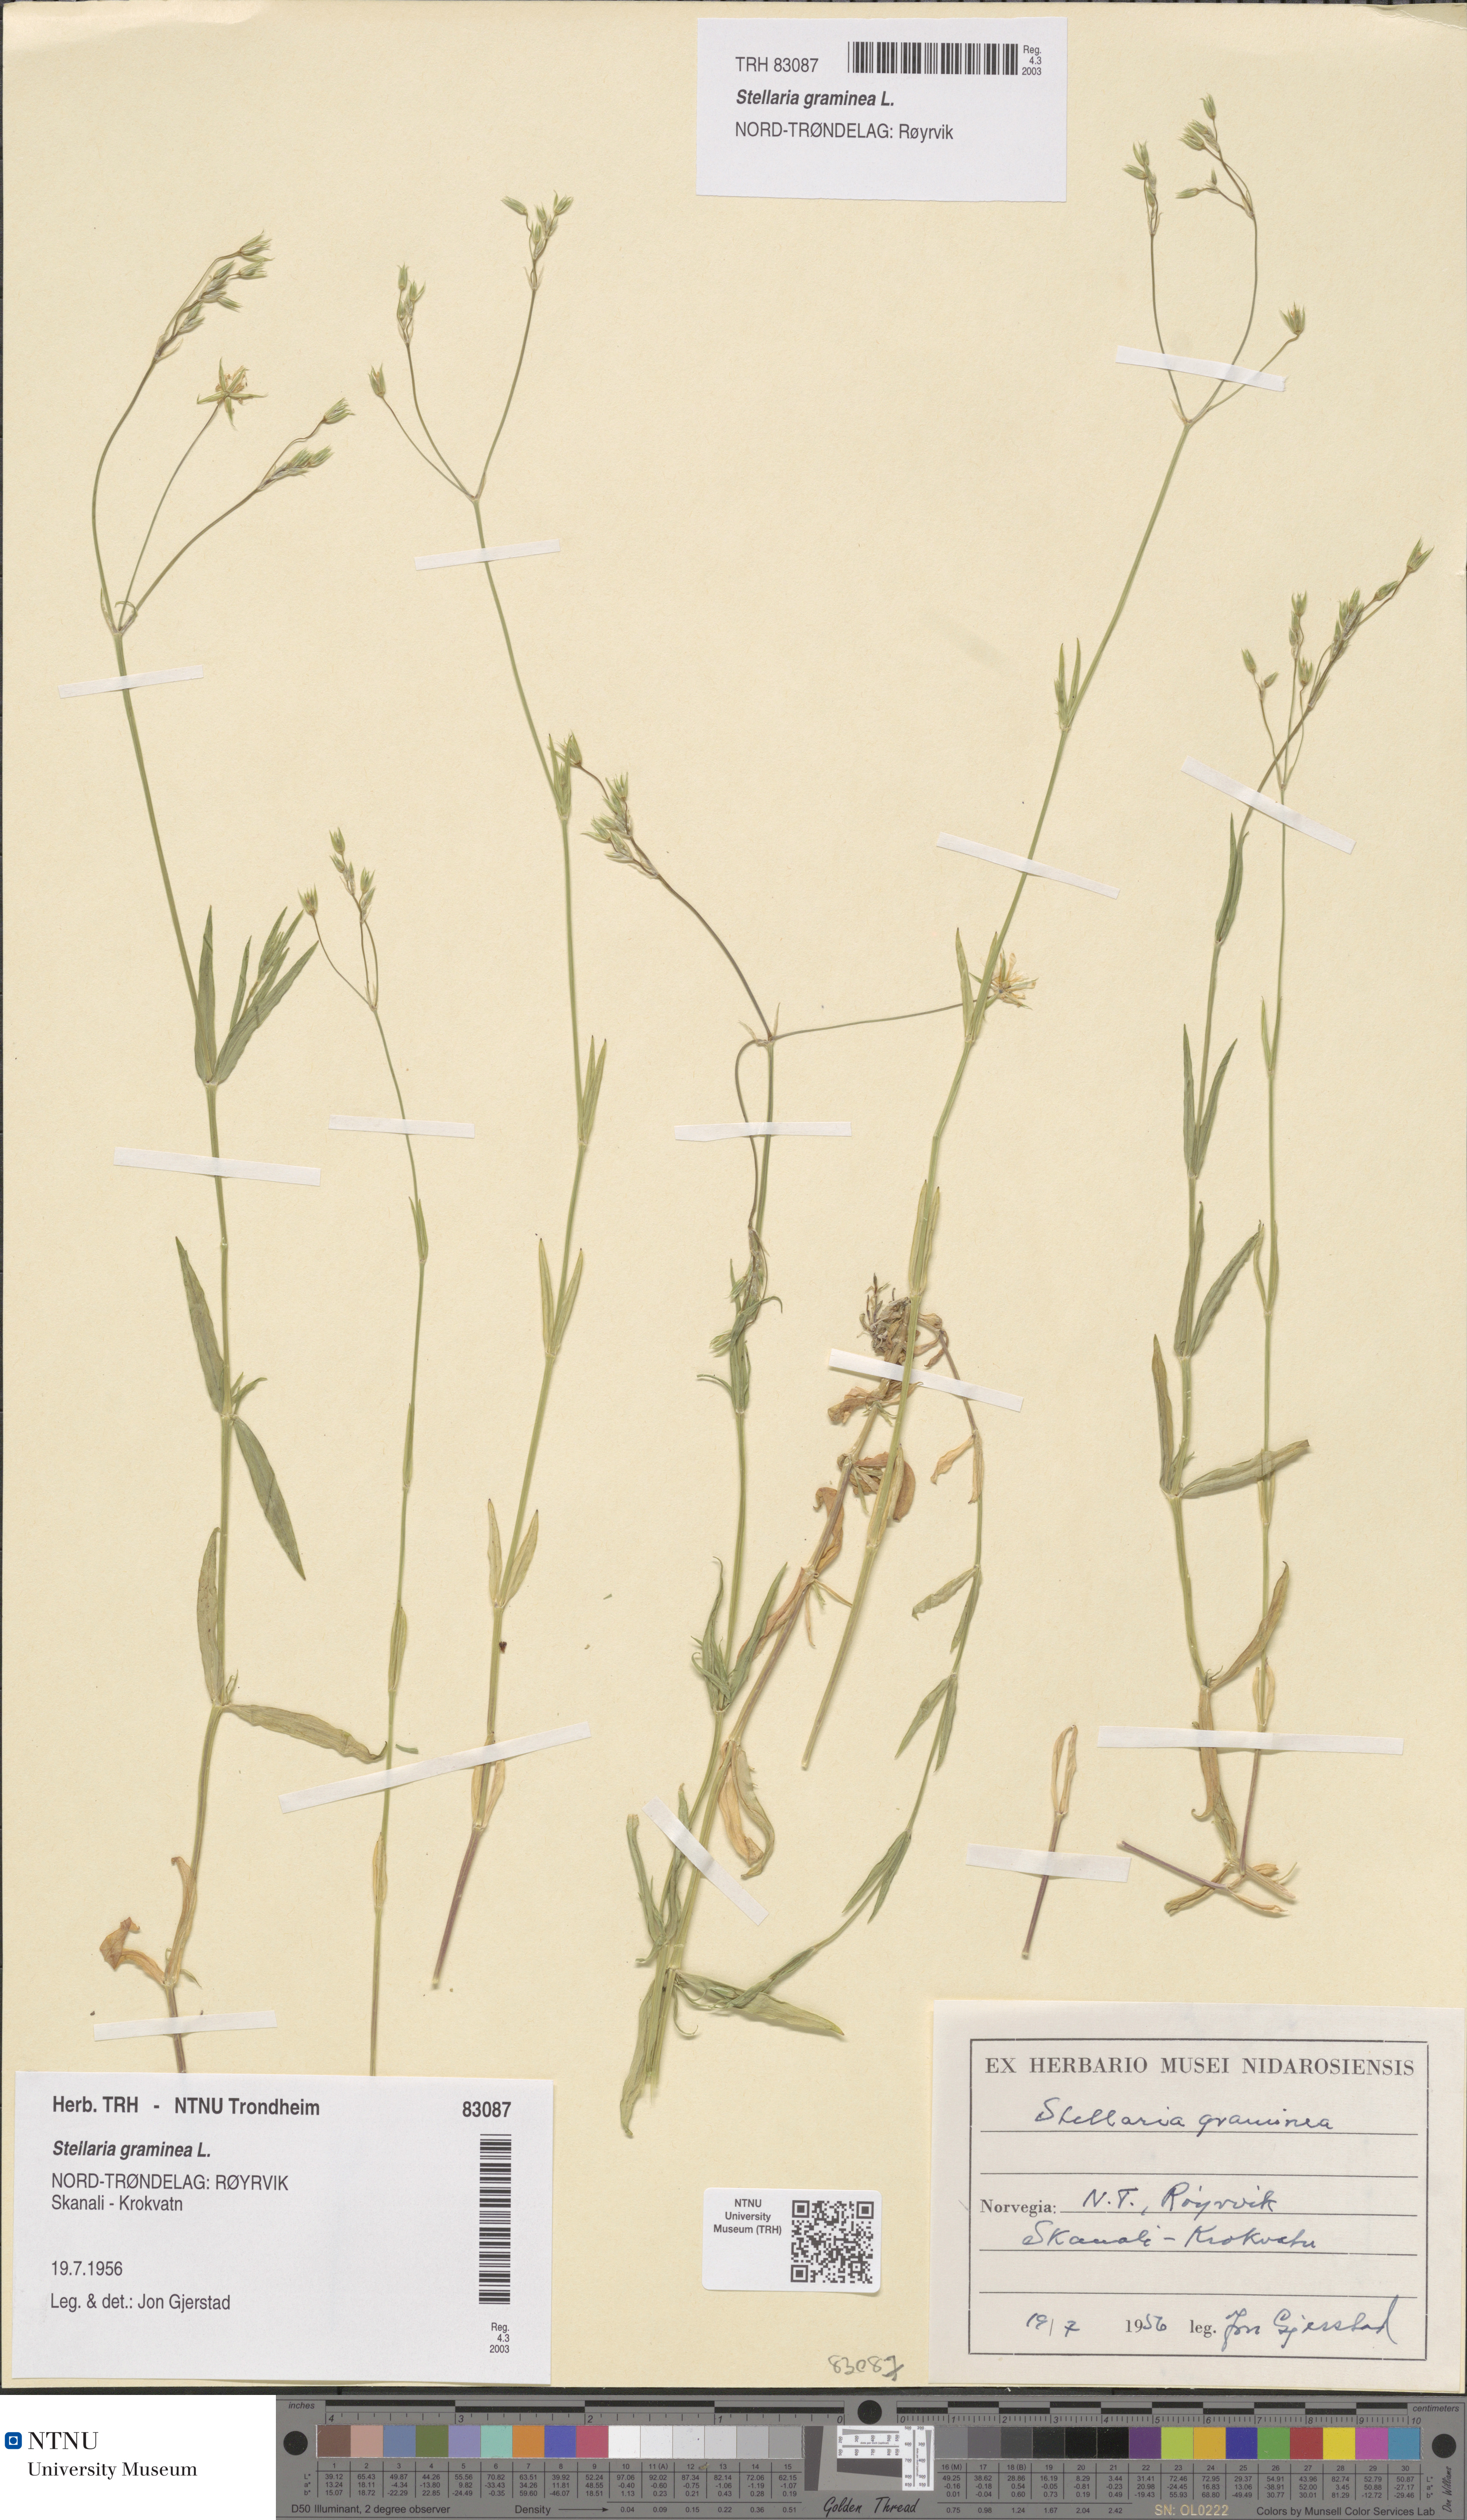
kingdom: Plantae
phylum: Tracheophyta
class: Magnoliopsida
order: Caryophyllales
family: Caryophyllaceae
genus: Stellaria
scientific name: Stellaria graminea
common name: Grass-like starwort
